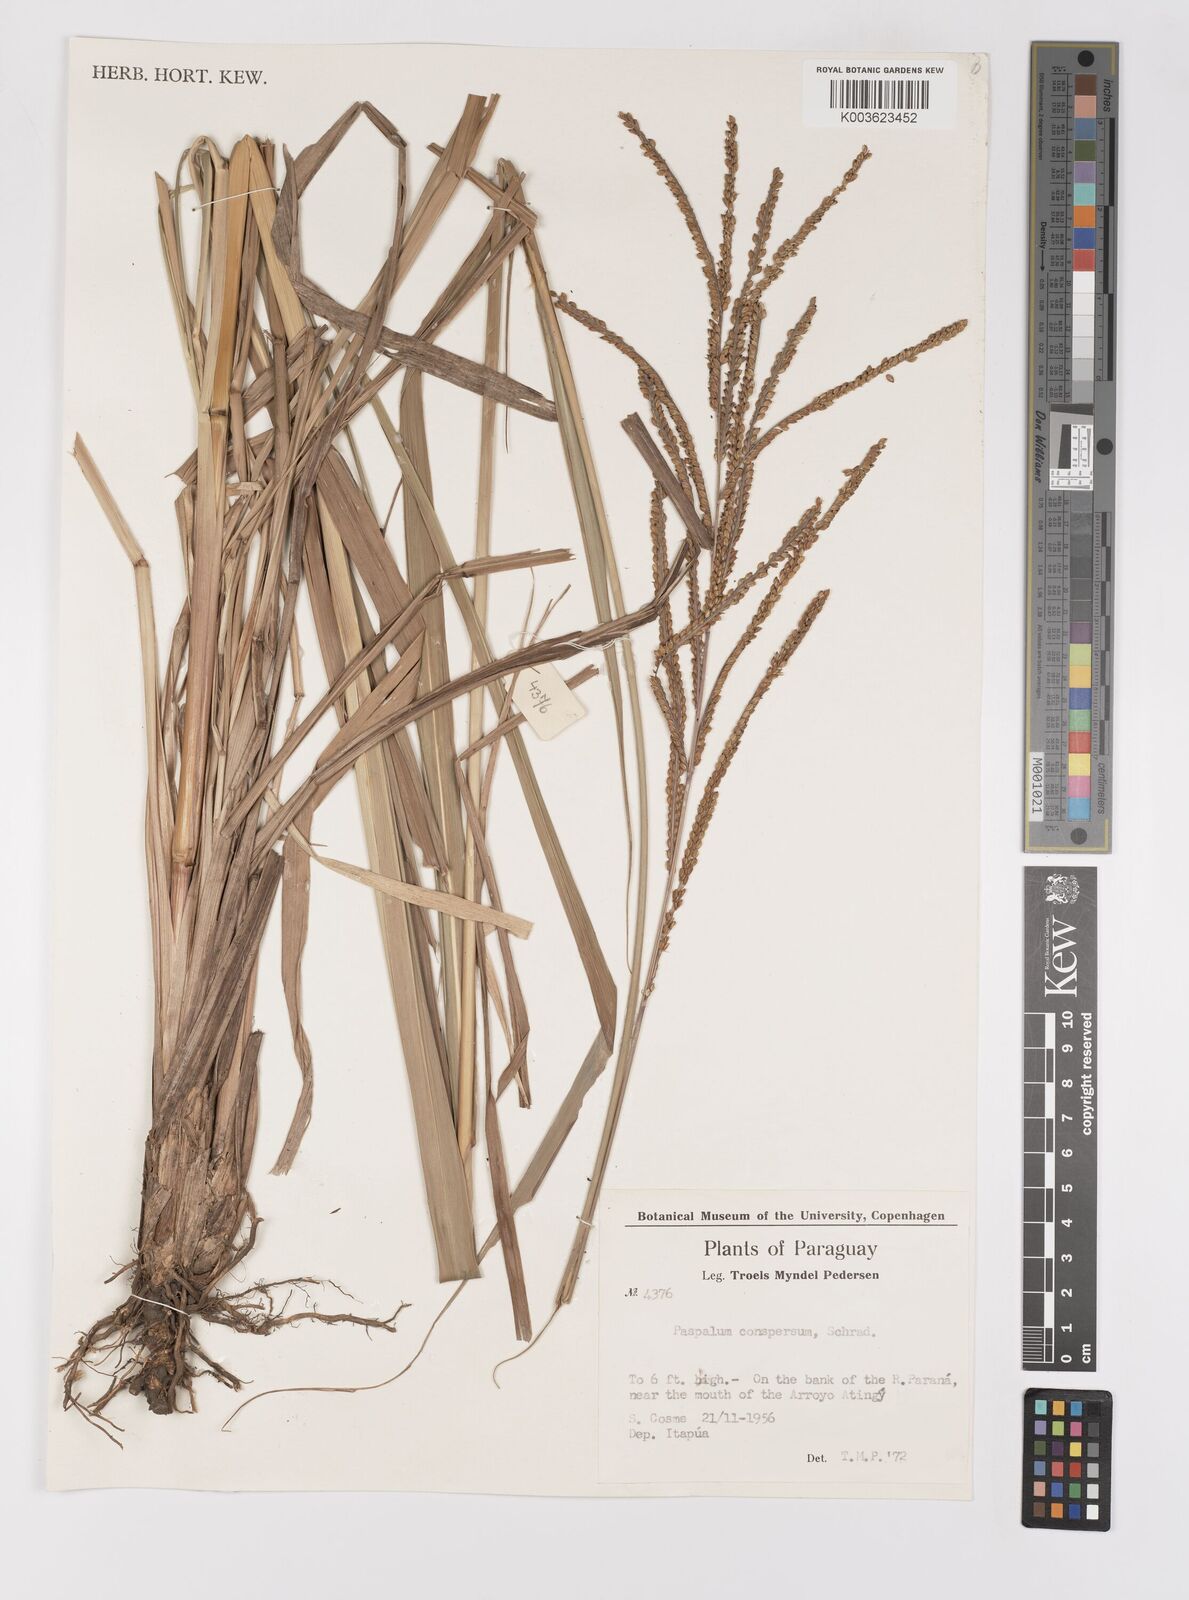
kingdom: Plantae
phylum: Tracheophyta
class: Liliopsida
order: Poales
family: Poaceae
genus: Paspalum
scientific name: Paspalum conspersum
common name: Scattered paspalum
